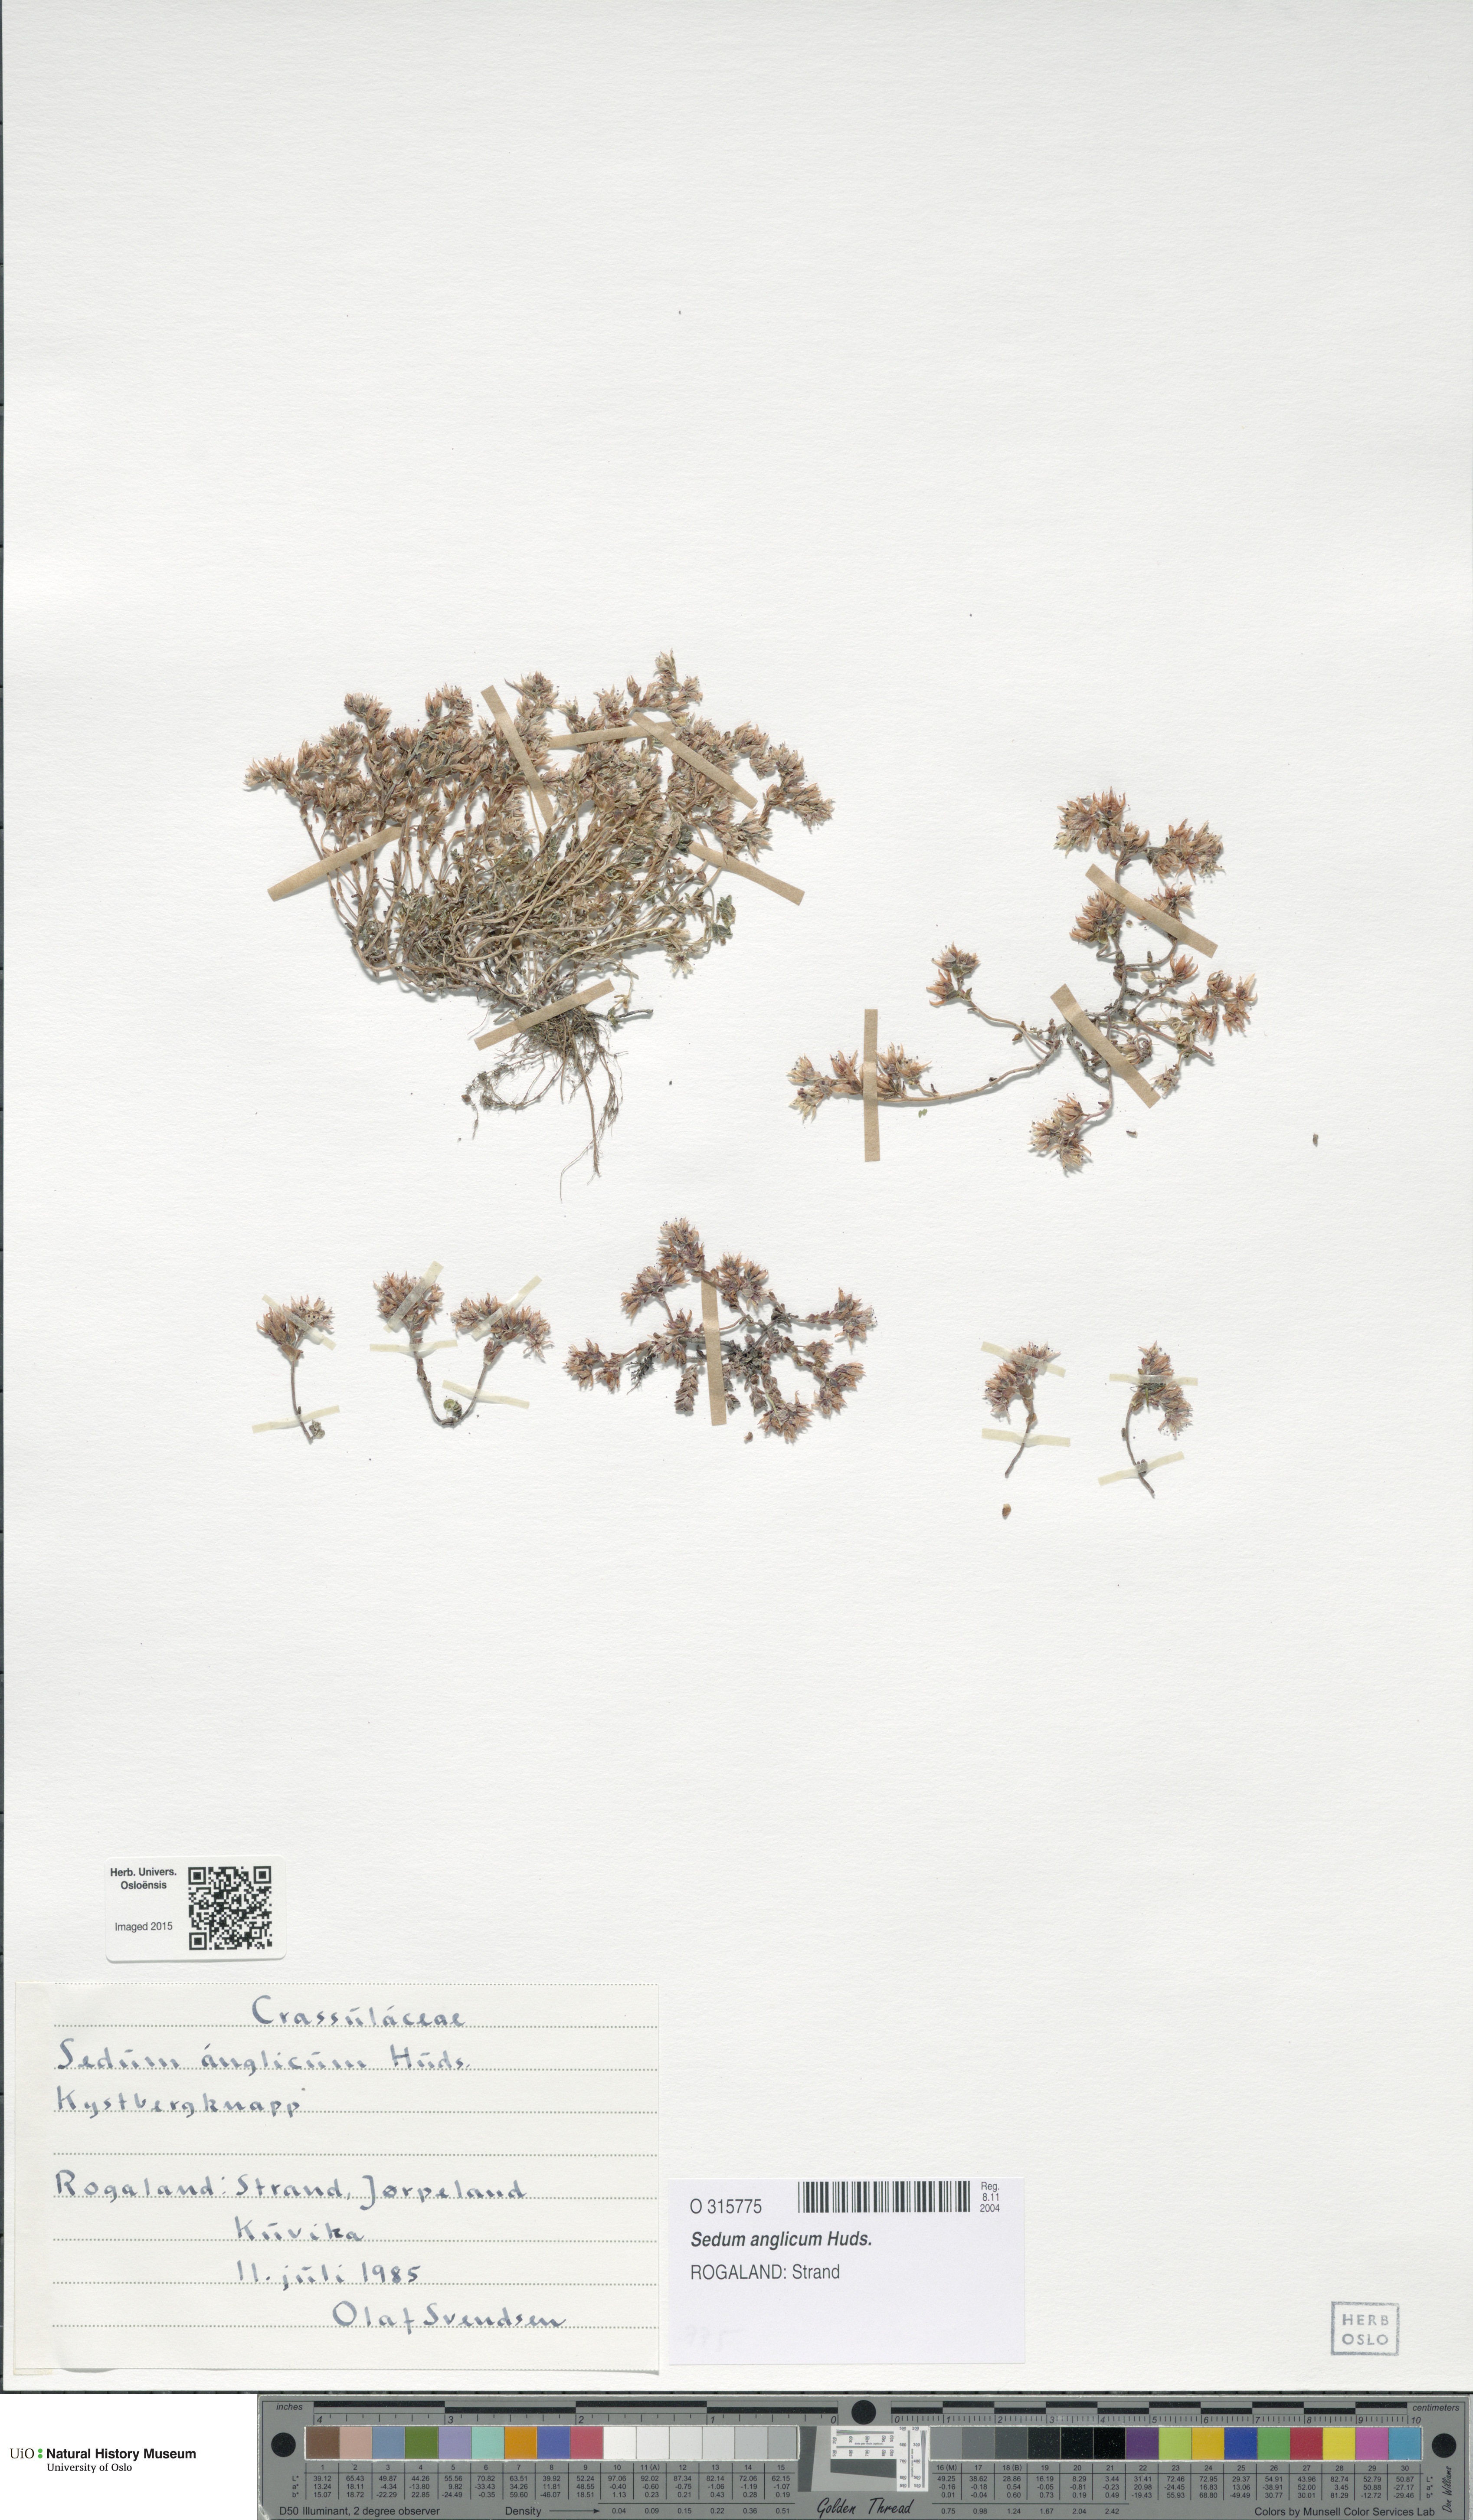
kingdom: Plantae
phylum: Tracheophyta
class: Magnoliopsida
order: Saxifragales
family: Crassulaceae
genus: Sedum
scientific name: Sedum anglicum
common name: English stonecrop
